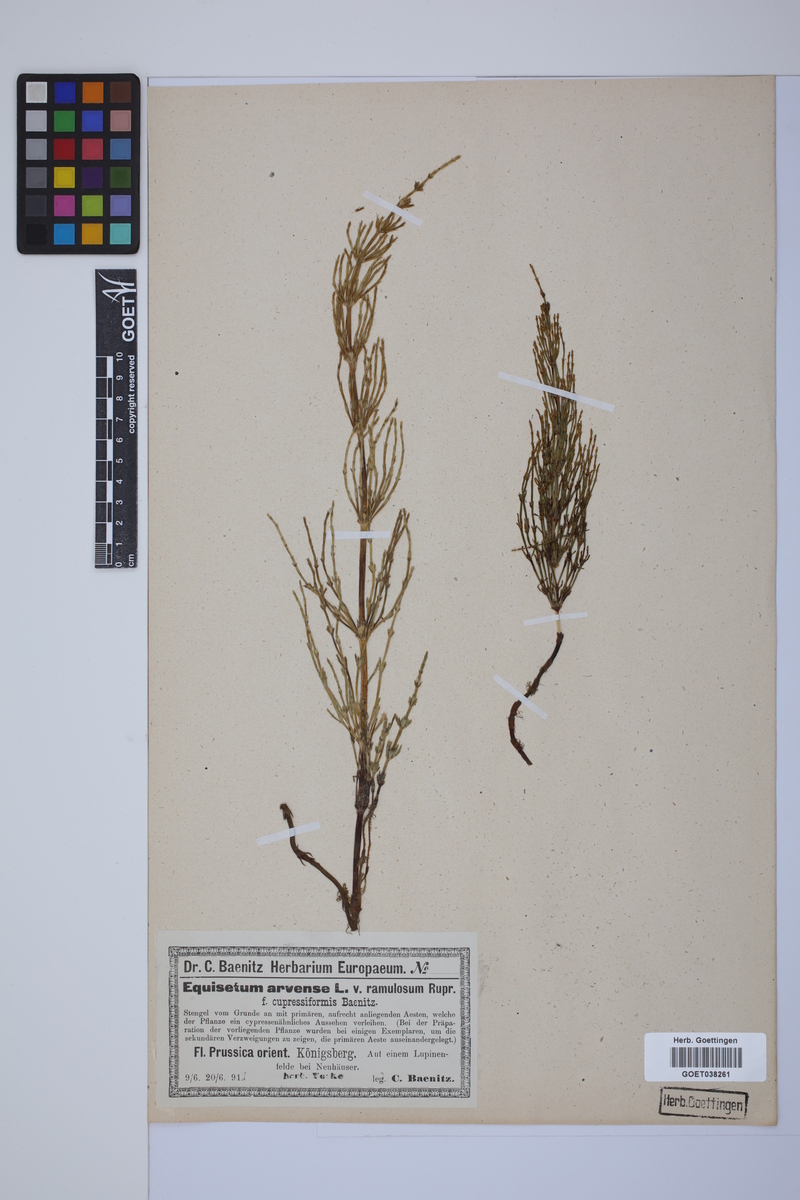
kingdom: Plantae
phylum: Tracheophyta
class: Polypodiopsida
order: Equisetales
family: Equisetaceae
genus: Equisetum
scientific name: Equisetum arvense
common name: Field horsetail
